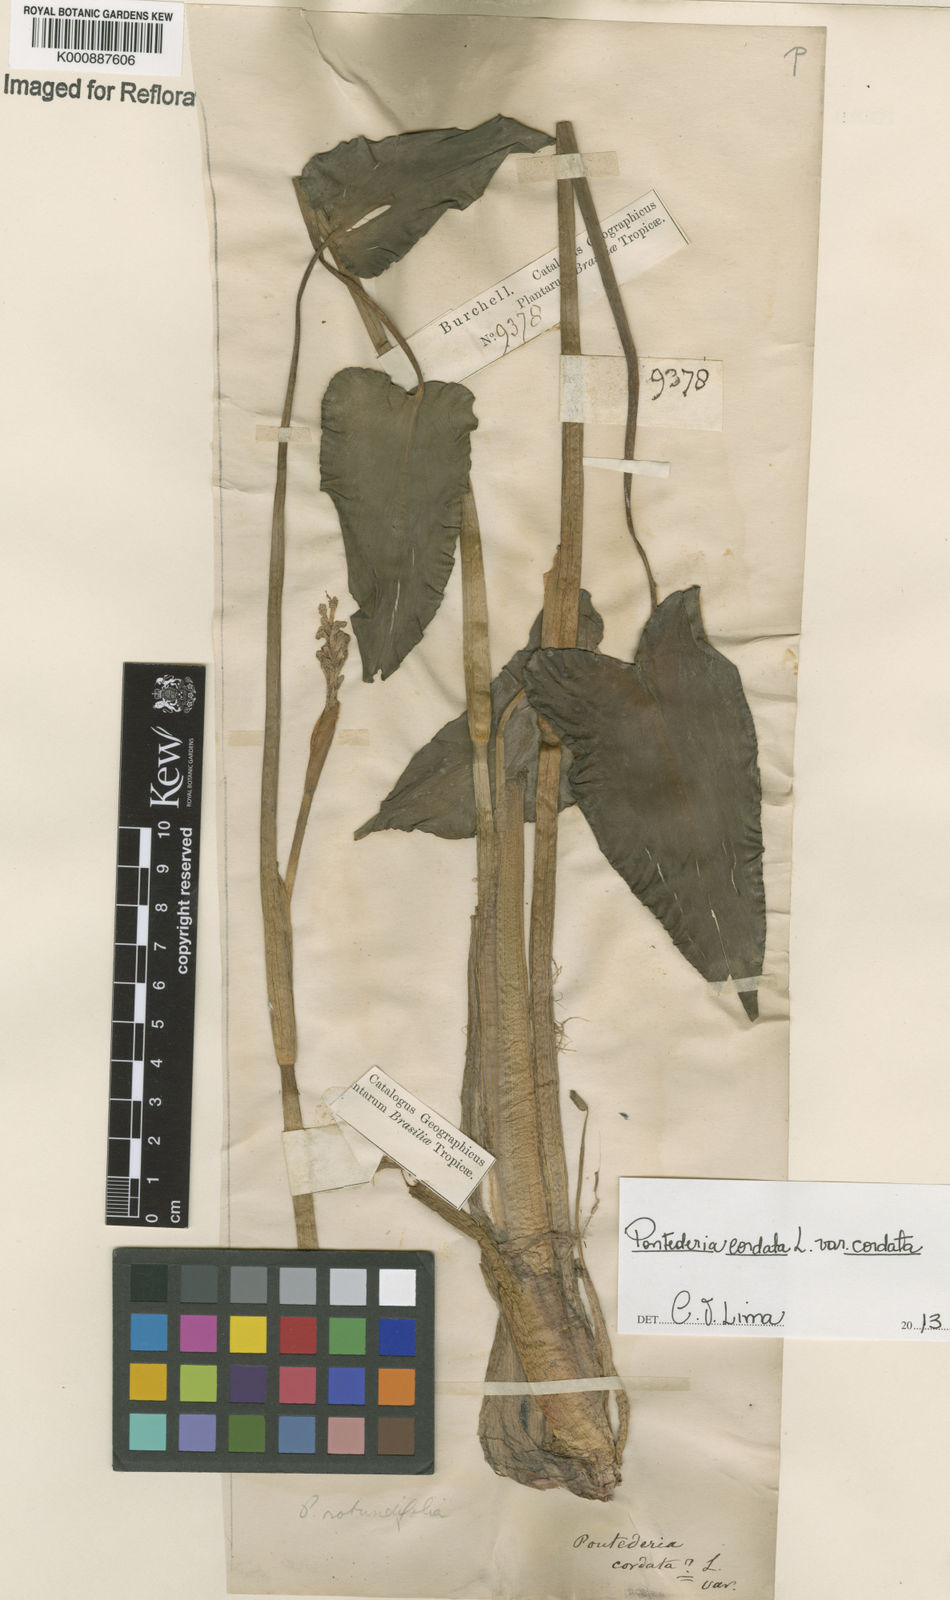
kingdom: Plantae
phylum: Tracheophyta
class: Liliopsida
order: Commelinales
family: Pontederiaceae
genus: Pontederia
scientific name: Pontederia cordata
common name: Pickerelweed
